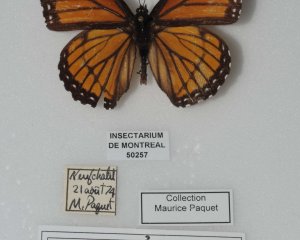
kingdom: Animalia
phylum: Arthropoda
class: Insecta
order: Lepidoptera
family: Nymphalidae
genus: Limenitis
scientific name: Limenitis archippus
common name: Viceroy
